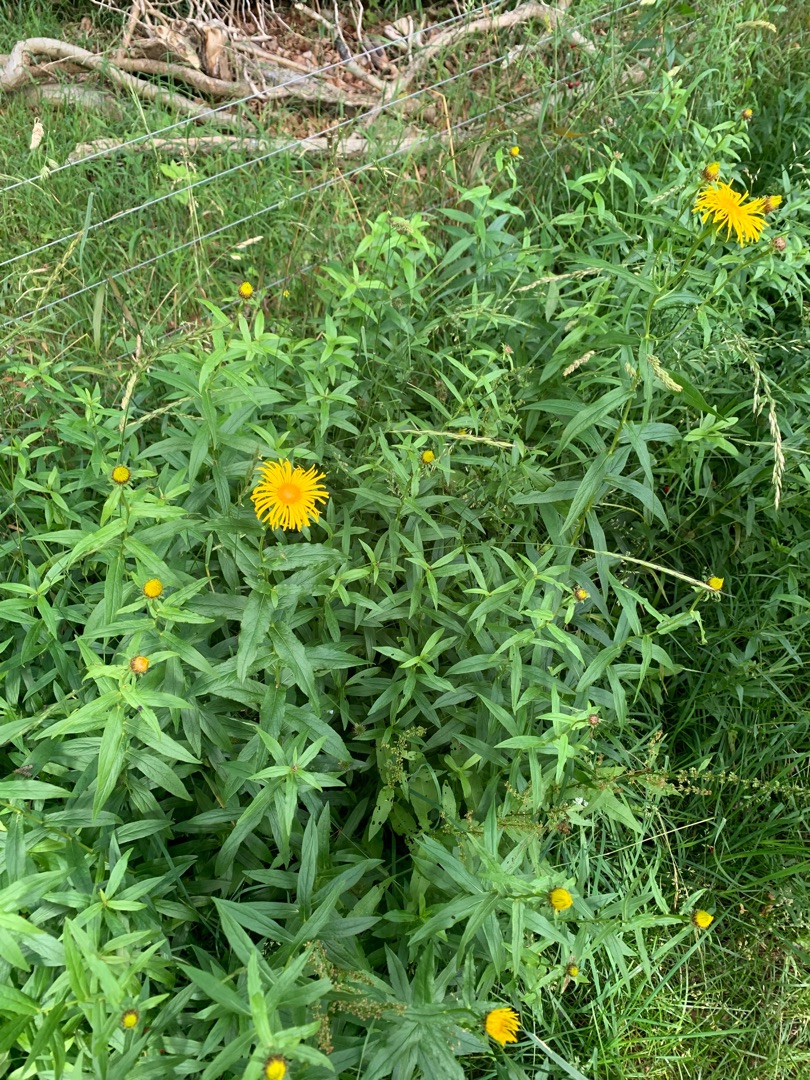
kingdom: Plantae
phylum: Tracheophyta
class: Magnoliopsida
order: Asterales
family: Asteraceae
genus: Pentanema
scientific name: Pentanema salicinum
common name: Pile-alant
